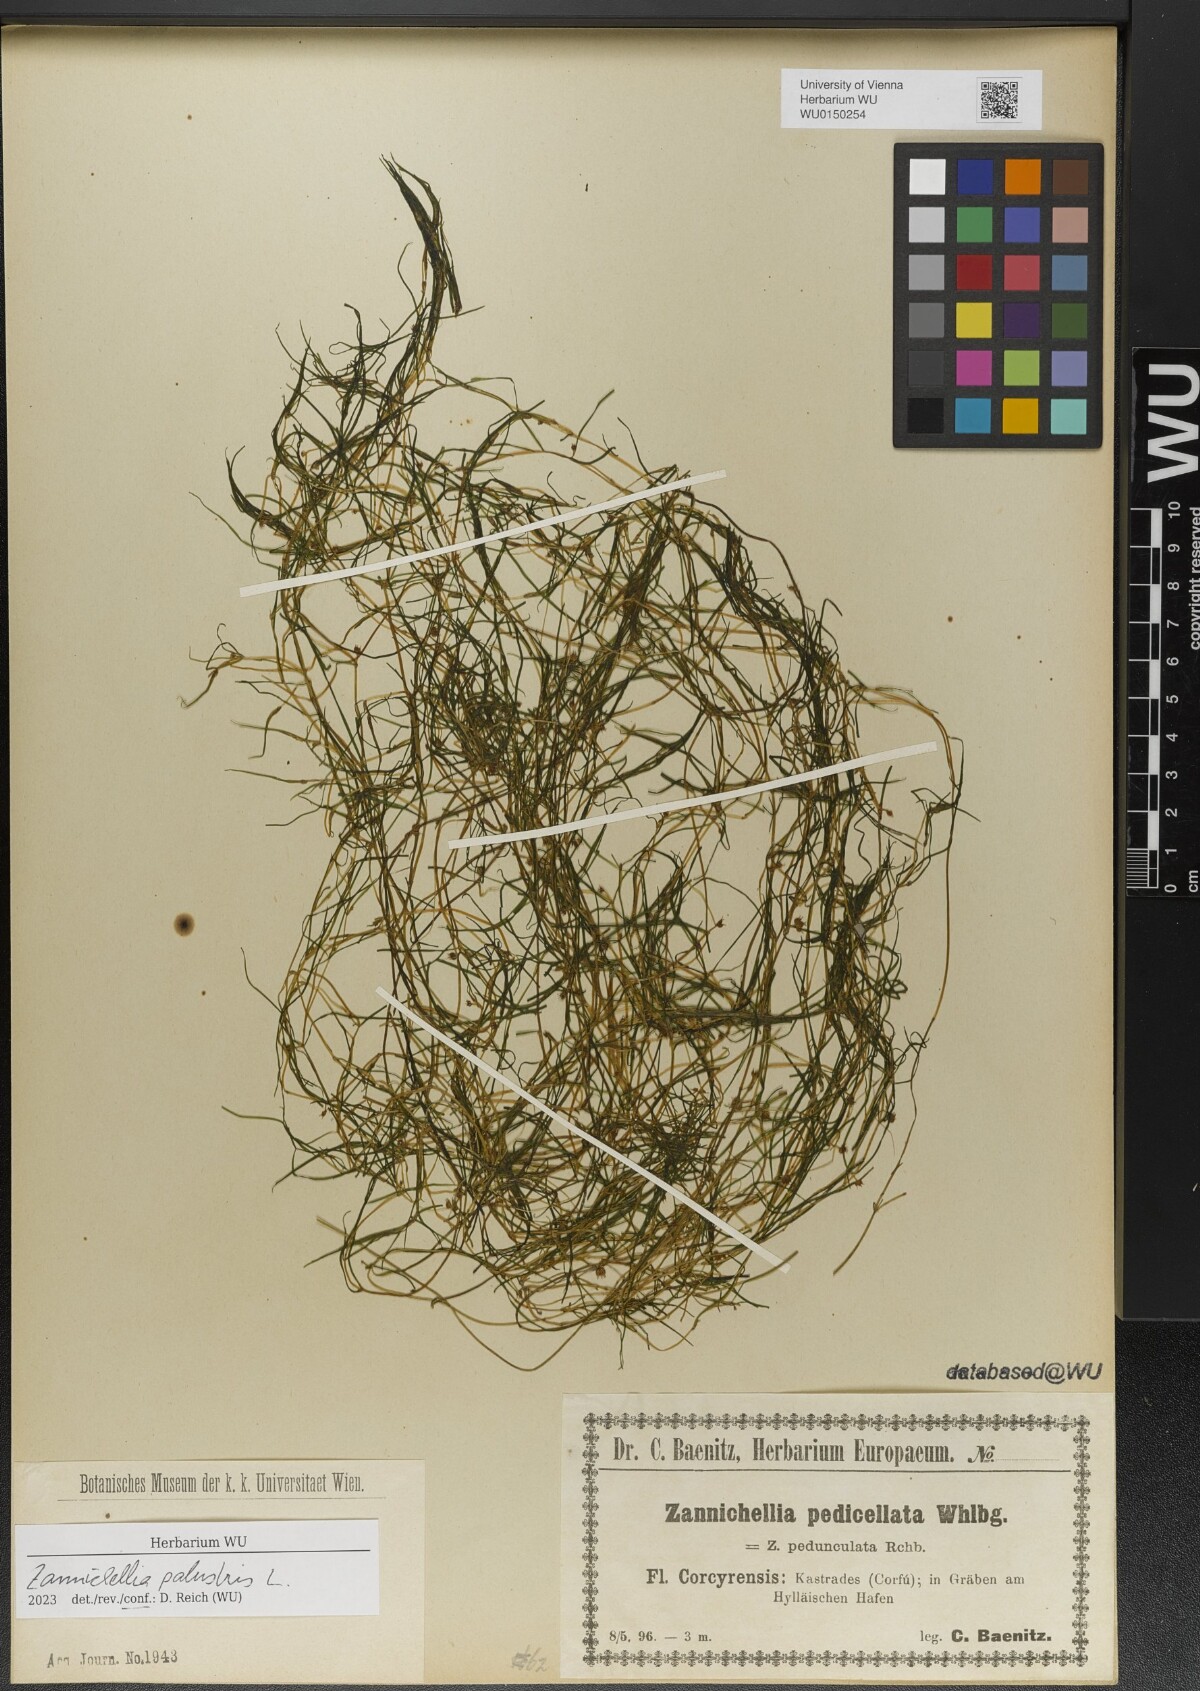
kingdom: Plantae
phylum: Tracheophyta
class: Liliopsida
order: Alismatales
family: Potamogetonaceae
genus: Zannichellia
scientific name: Zannichellia palustris
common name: Horned pondweed
